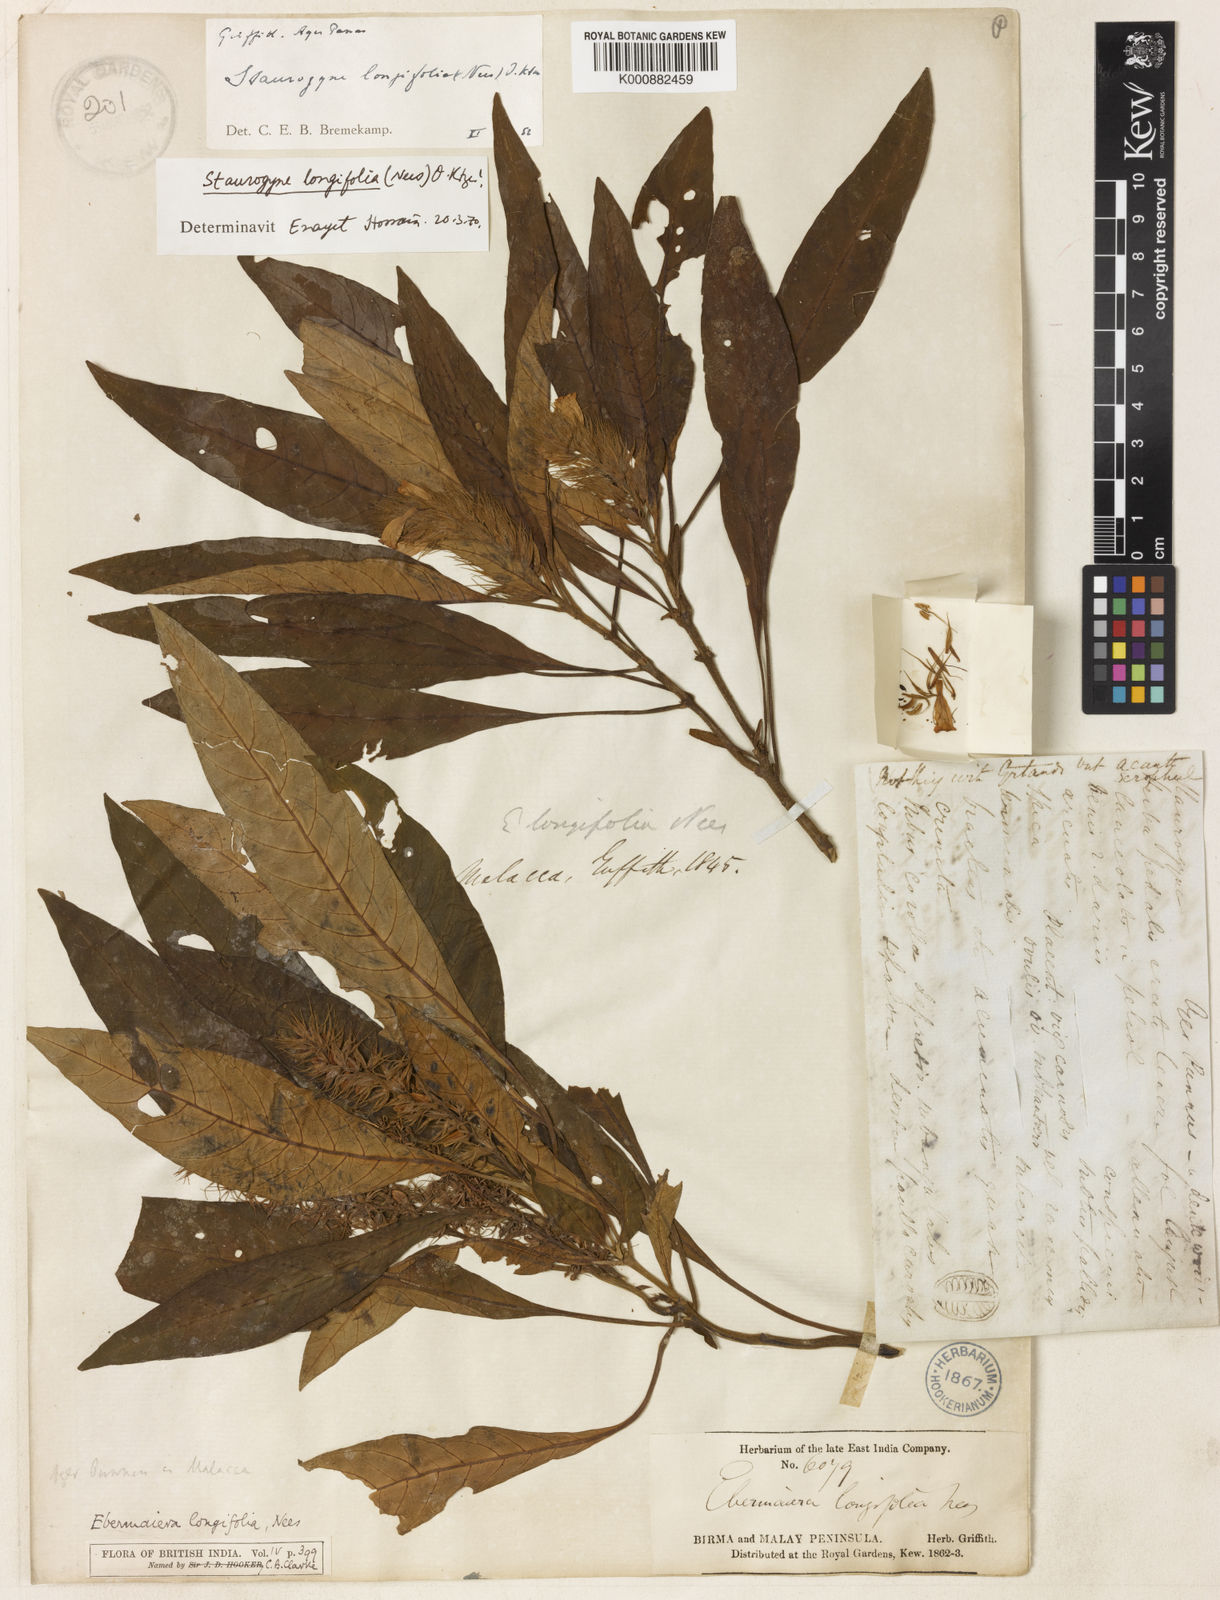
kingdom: Plantae
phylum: Tracheophyta
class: Magnoliopsida
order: Lamiales
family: Acanthaceae
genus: Staurogyne
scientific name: Staurogyne longifolia
